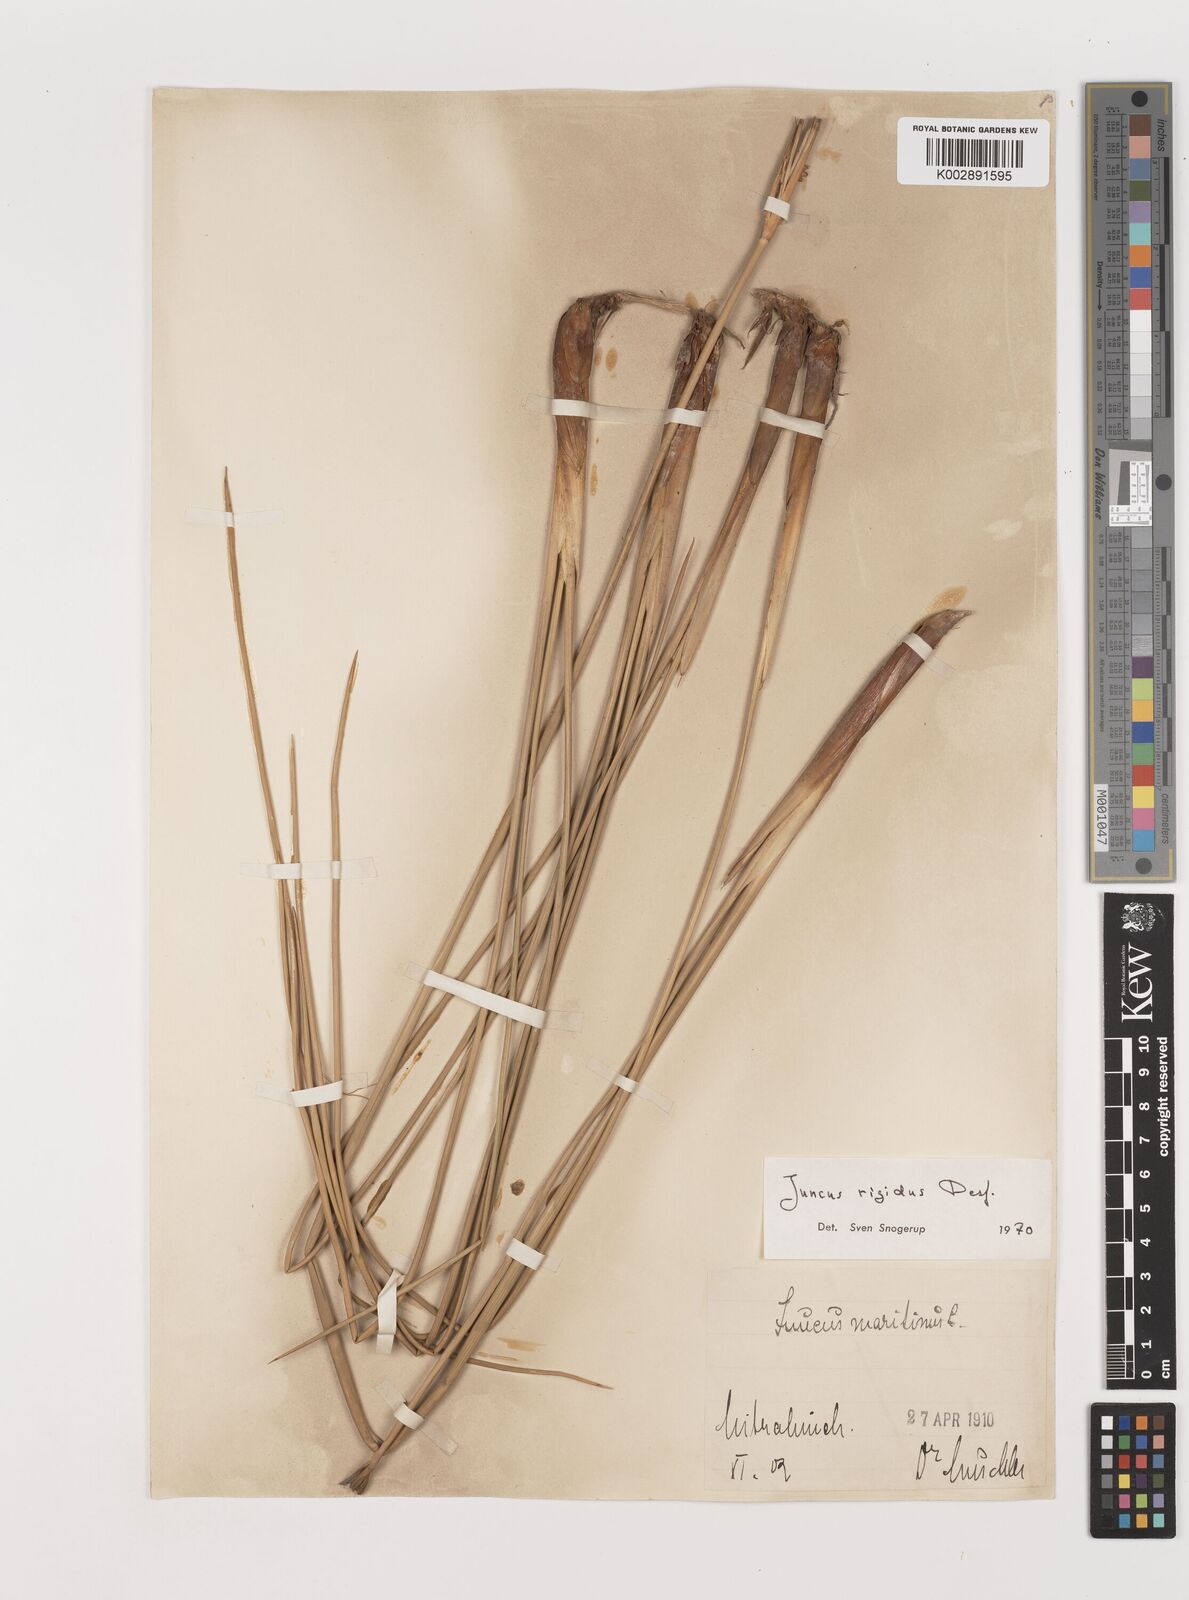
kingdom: Plantae
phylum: Tracheophyta
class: Liliopsida
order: Poales
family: Juncaceae
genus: Juncus
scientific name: Juncus rigidus
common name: Hard sea rush
